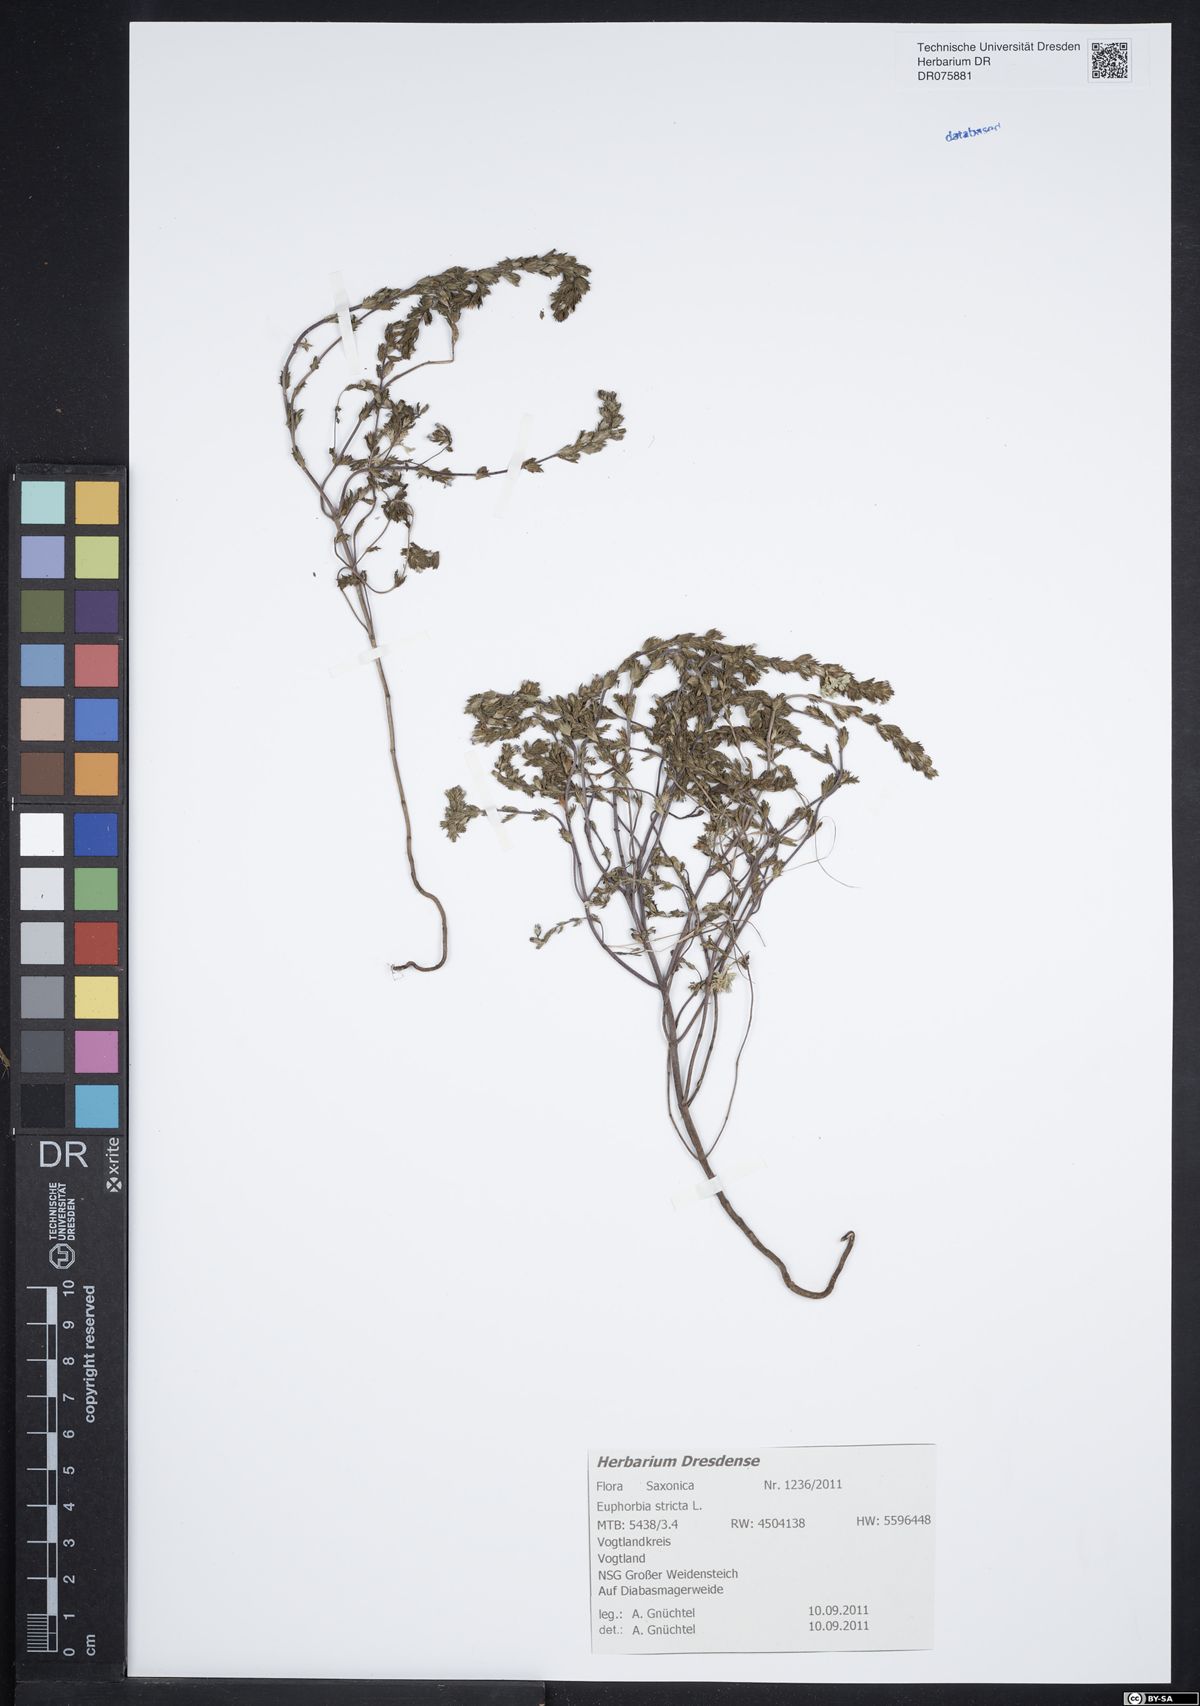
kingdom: Plantae
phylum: Tracheophyta
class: Magnoliopsida
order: Malpighiales
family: Euphorbiaceae
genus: Euphorbia
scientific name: Euphorbia stricta
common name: Upright spurge
